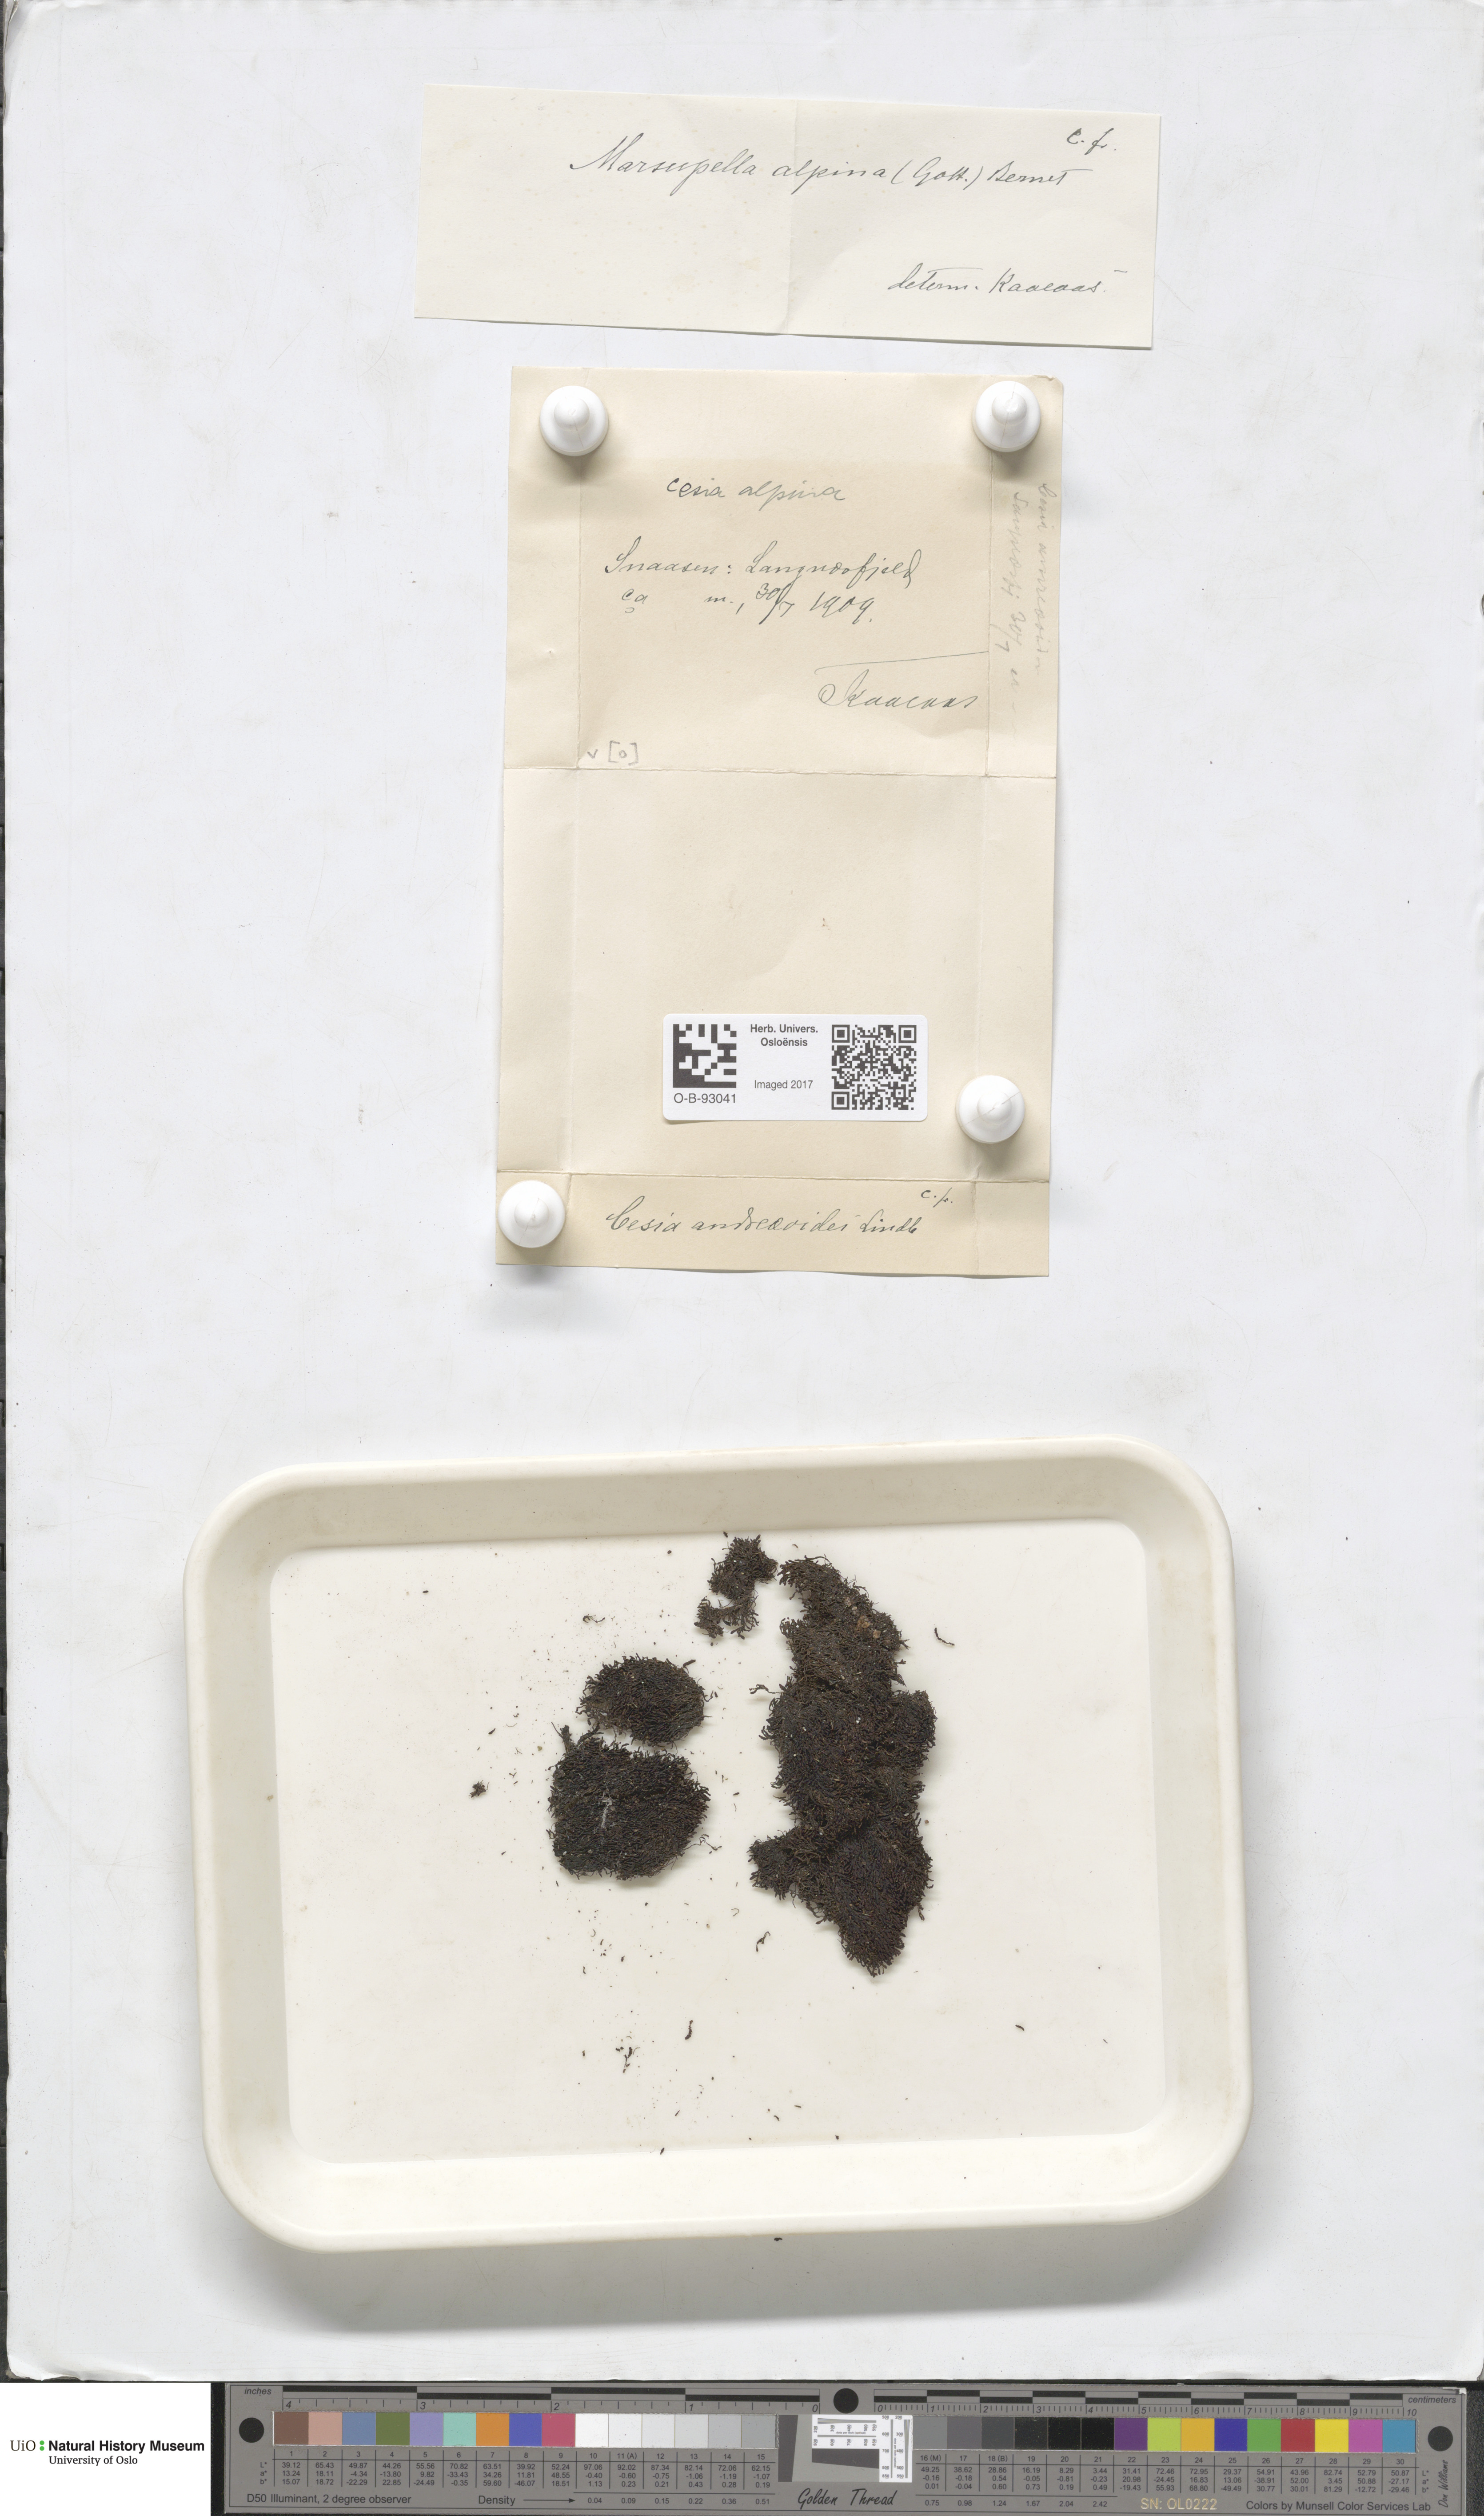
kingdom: Plantae
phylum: Marchantiophyta
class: Jungermanniopsida
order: Jungermanniales
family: Gymnomitriaceae
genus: Gymnomitrion
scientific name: Gymnomitrion alpinum
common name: Alpine rustwort
